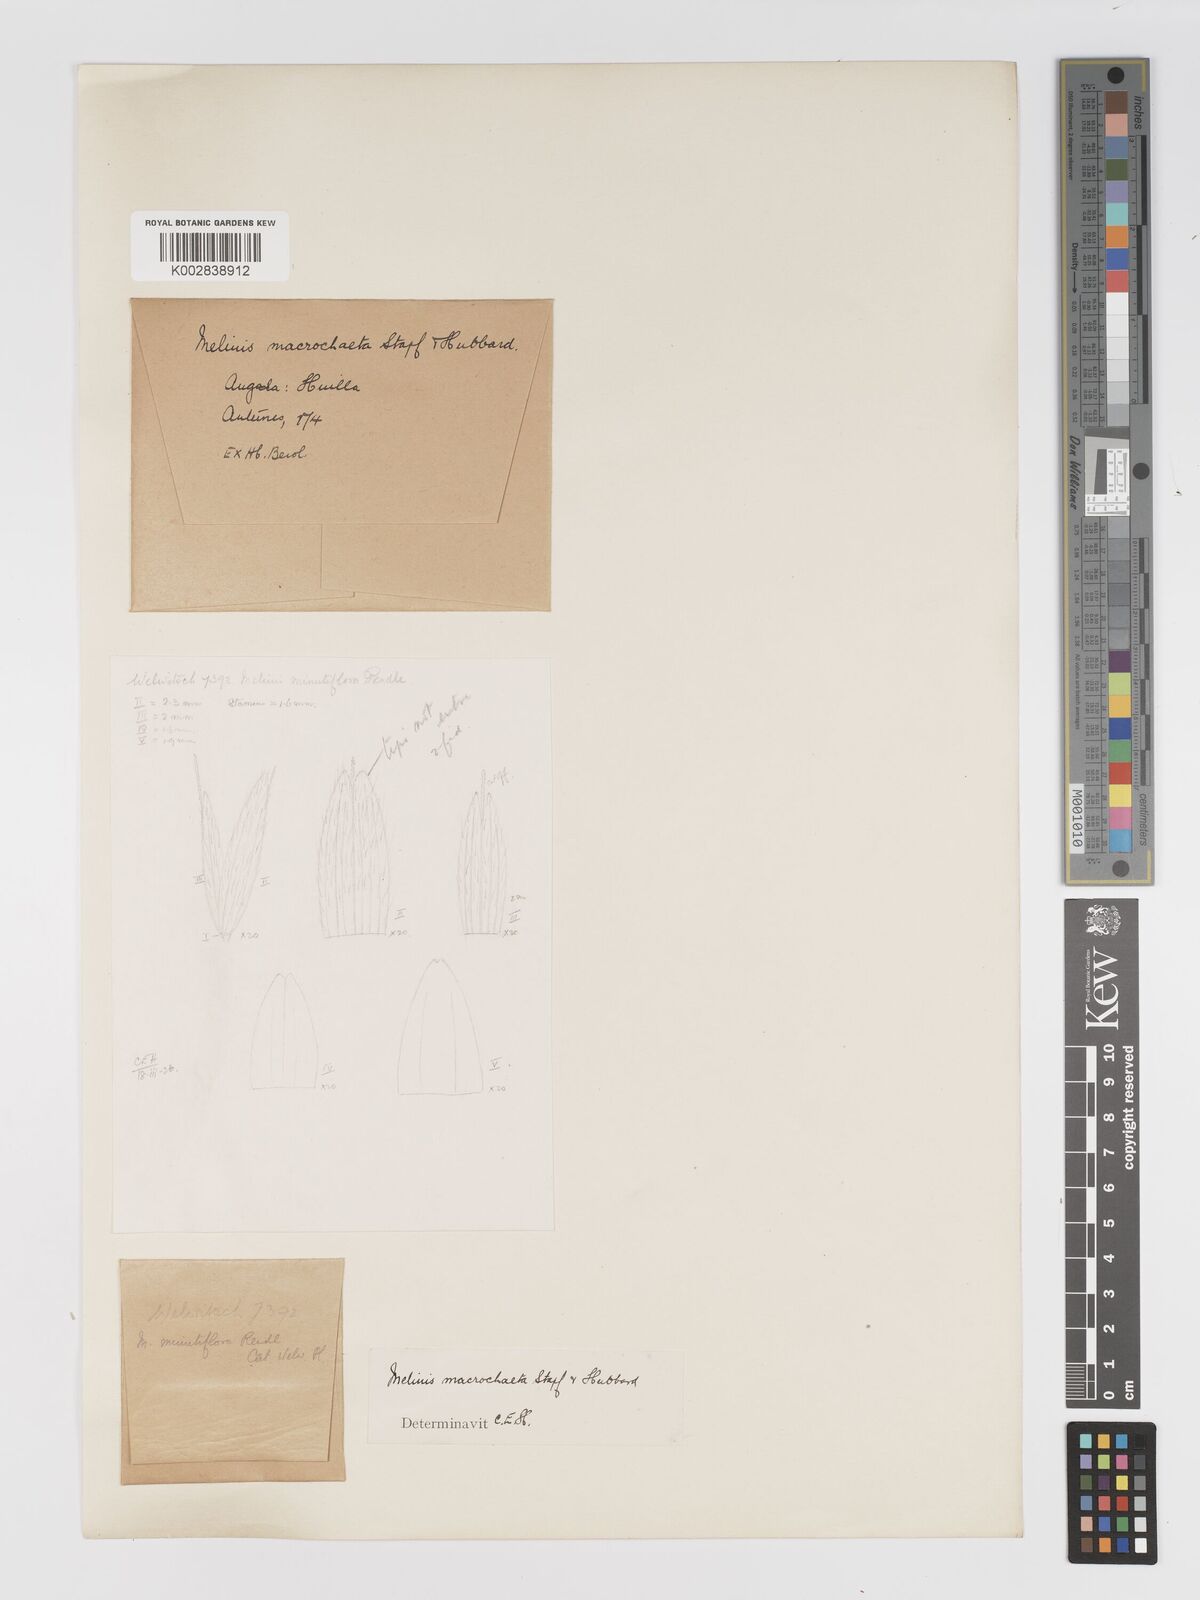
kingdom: Plantae
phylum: Tracheophyta
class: Liliopsida
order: Poales
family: Poaceae
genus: Melinis
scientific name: Melinis macrochaeta
